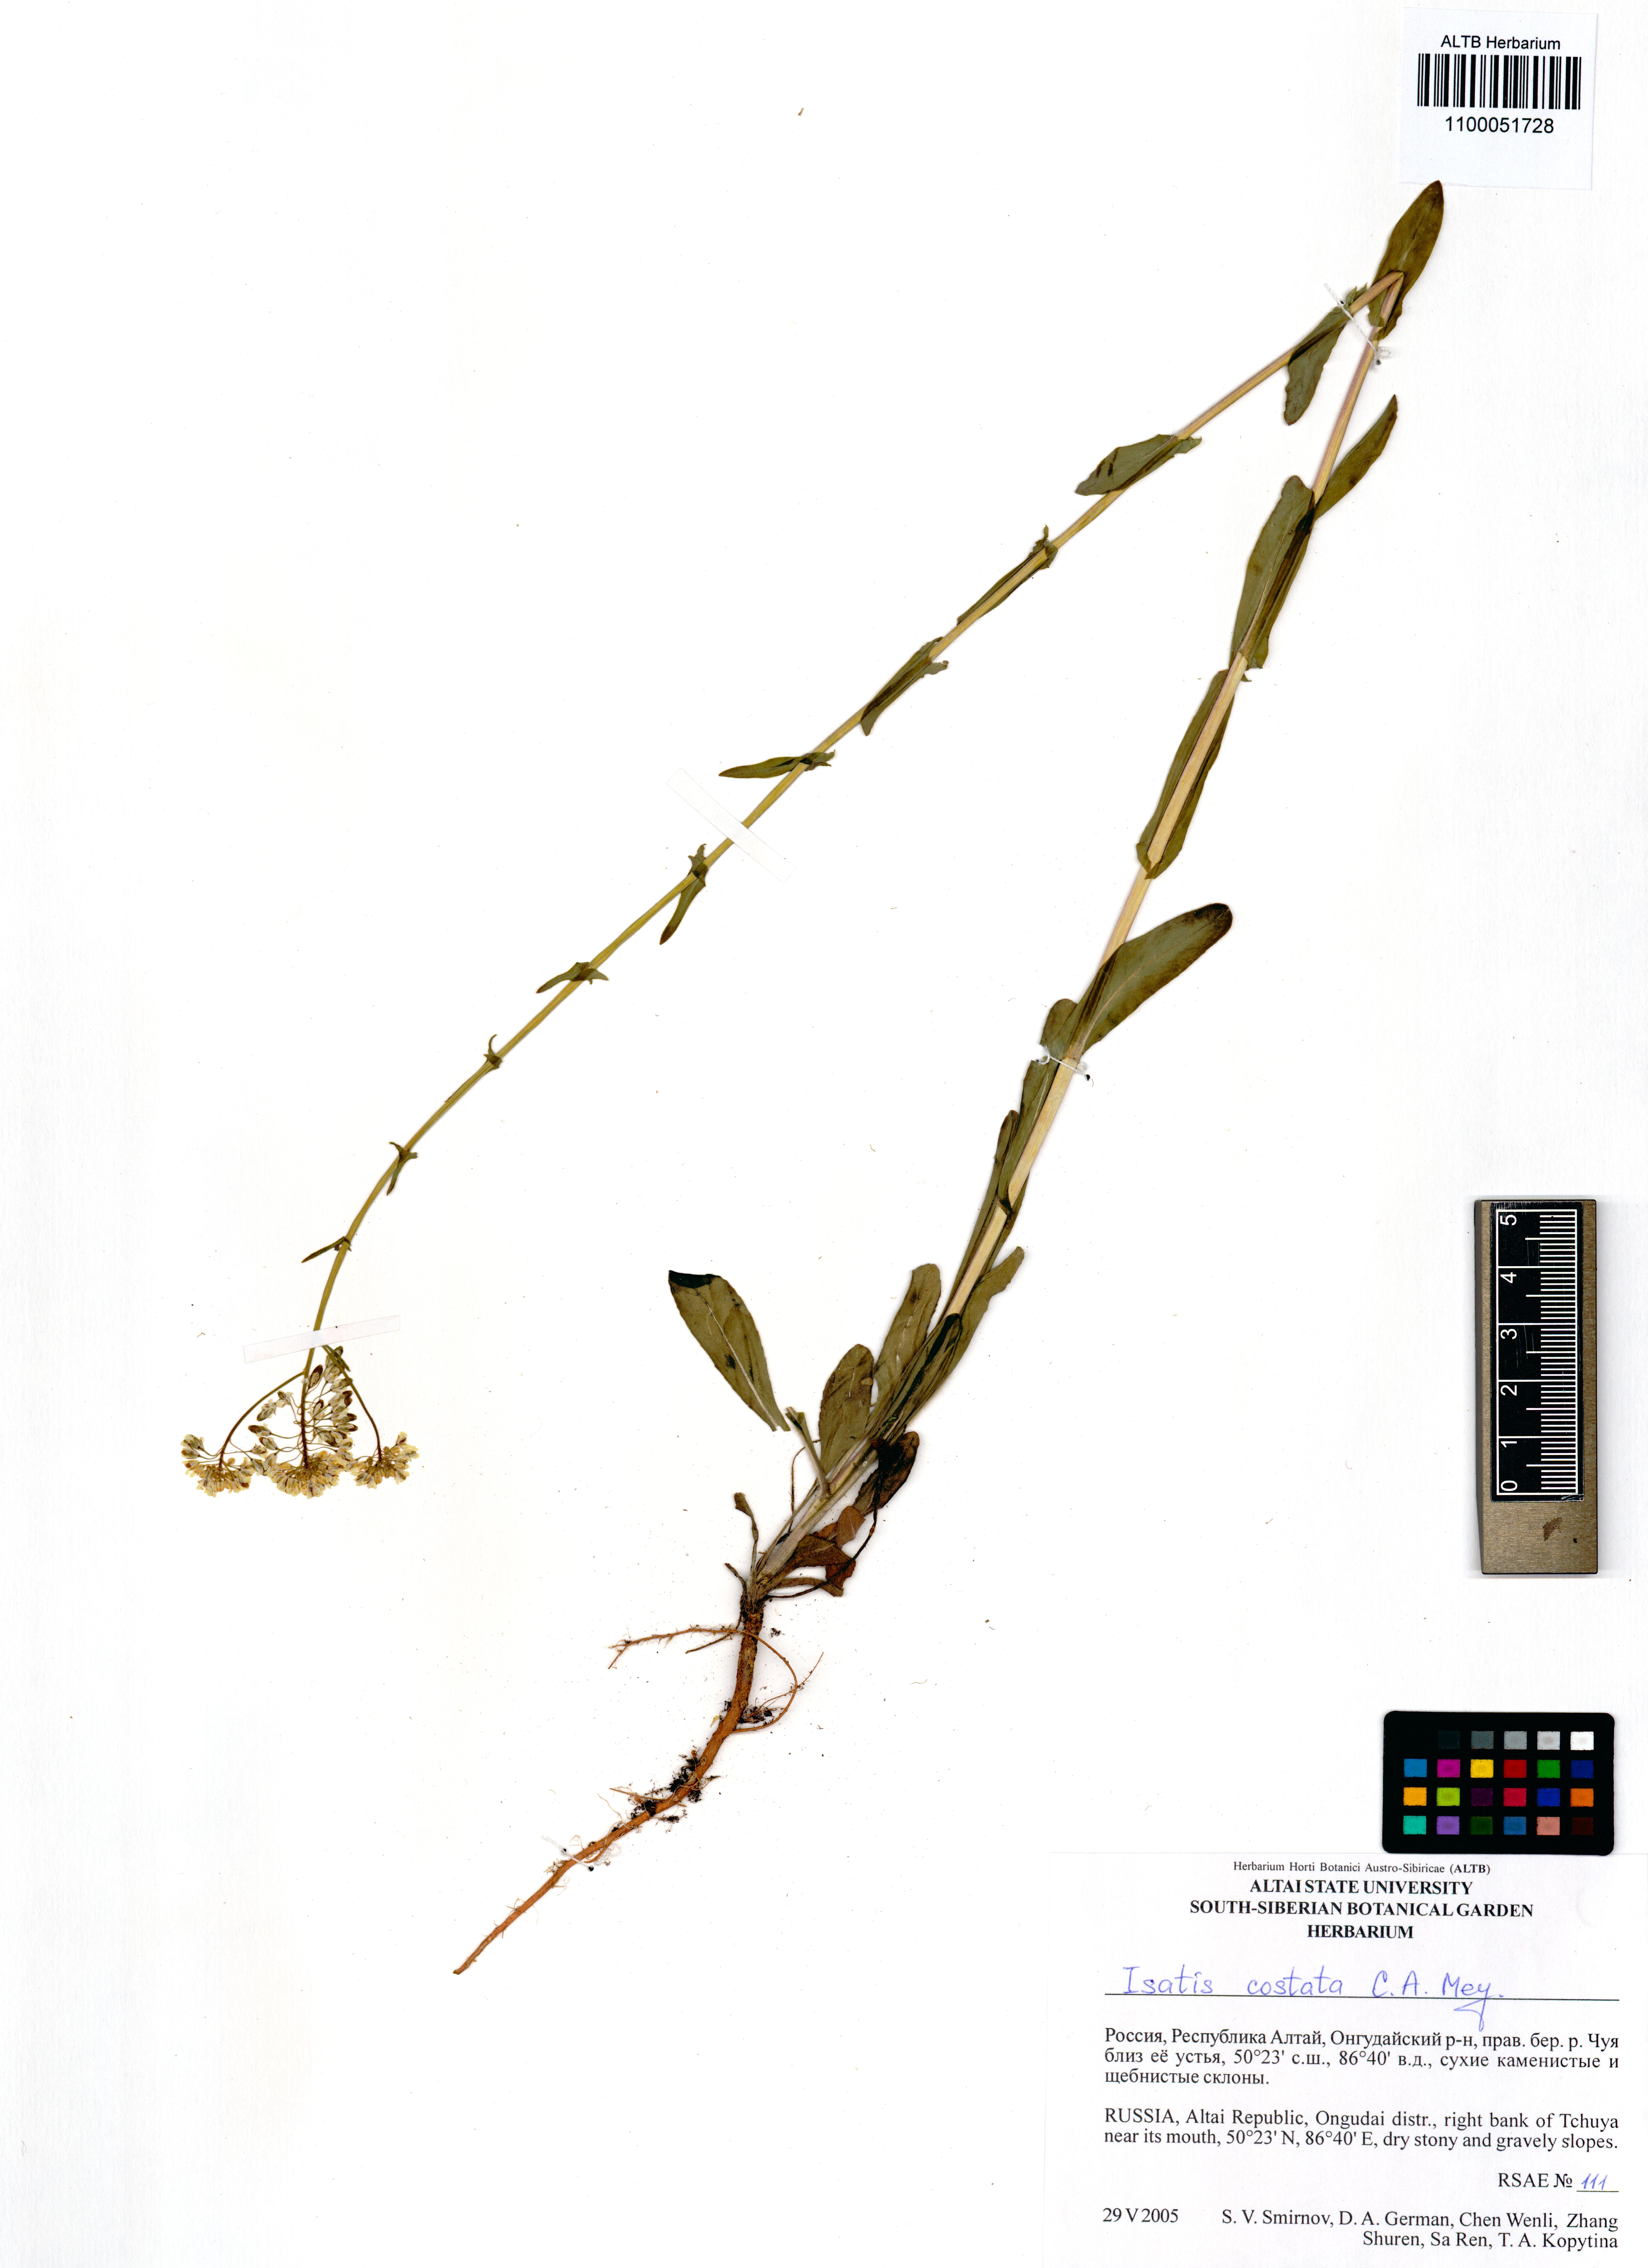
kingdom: Plantae
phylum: Tracheophyta
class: Magnoliopsida
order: Brassicales
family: Brassicaceae
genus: Isatis
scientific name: Isatis costata
